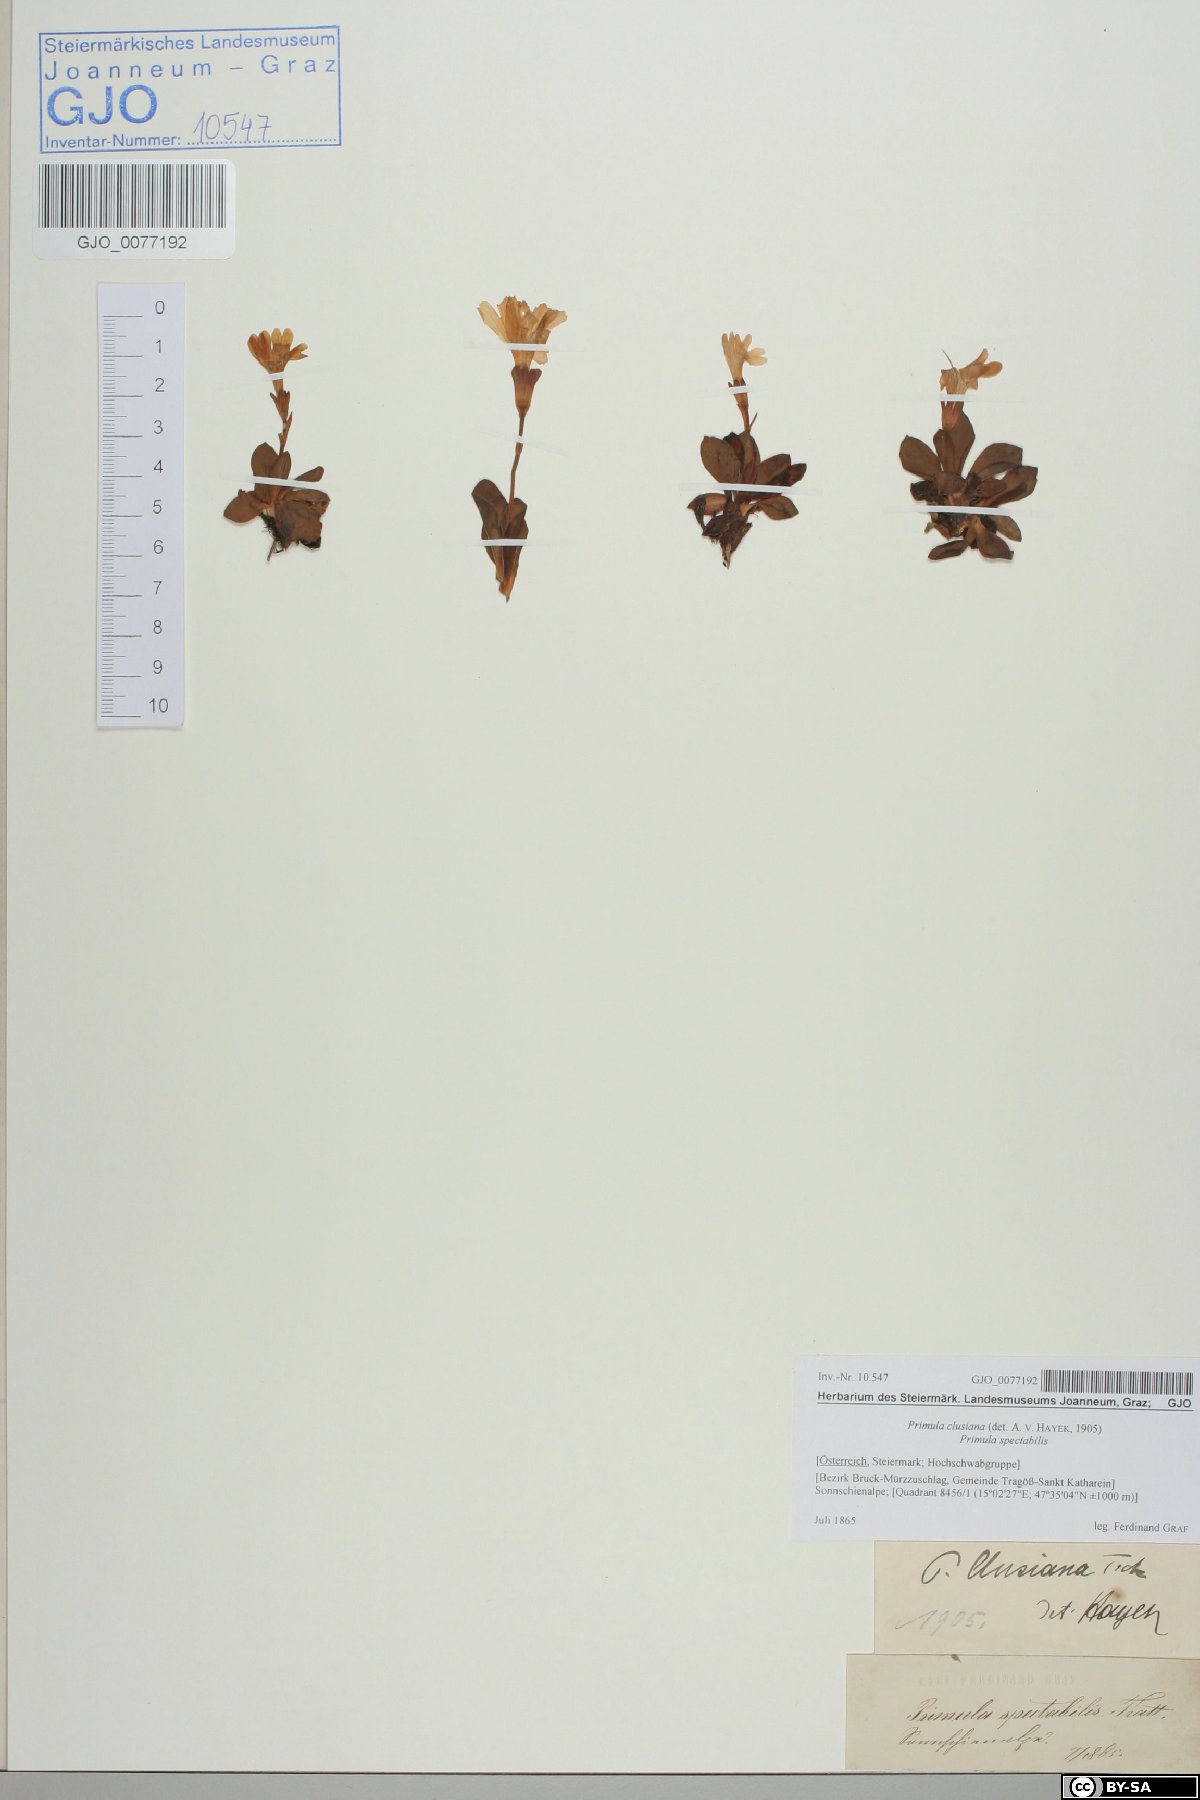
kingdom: Plantae
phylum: Tracheophyta
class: Magnoliopsida
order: Ericales
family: Primulaceae
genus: Primula
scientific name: Primula clusiana
